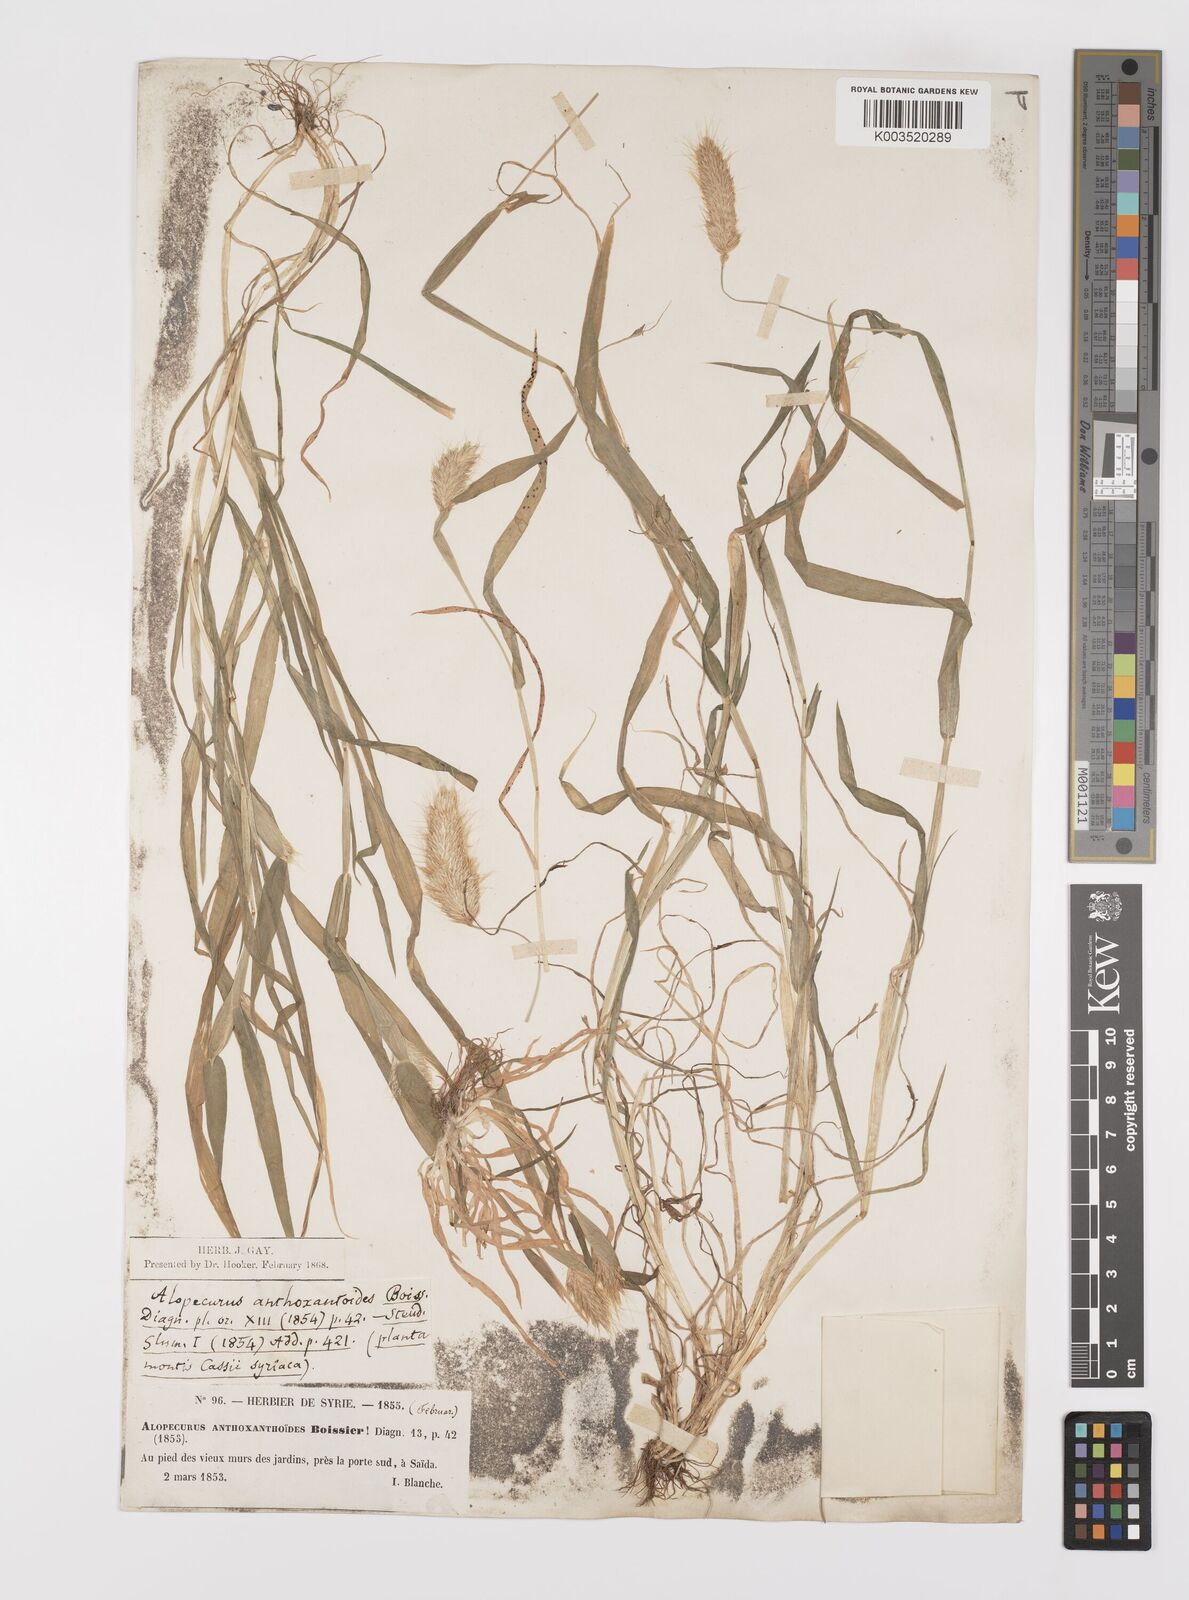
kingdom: Plantae
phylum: Tracheophyta
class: Liliopsida
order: Poales
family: Poaceae
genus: Alopecurus
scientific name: Alopecurus utriculatus
